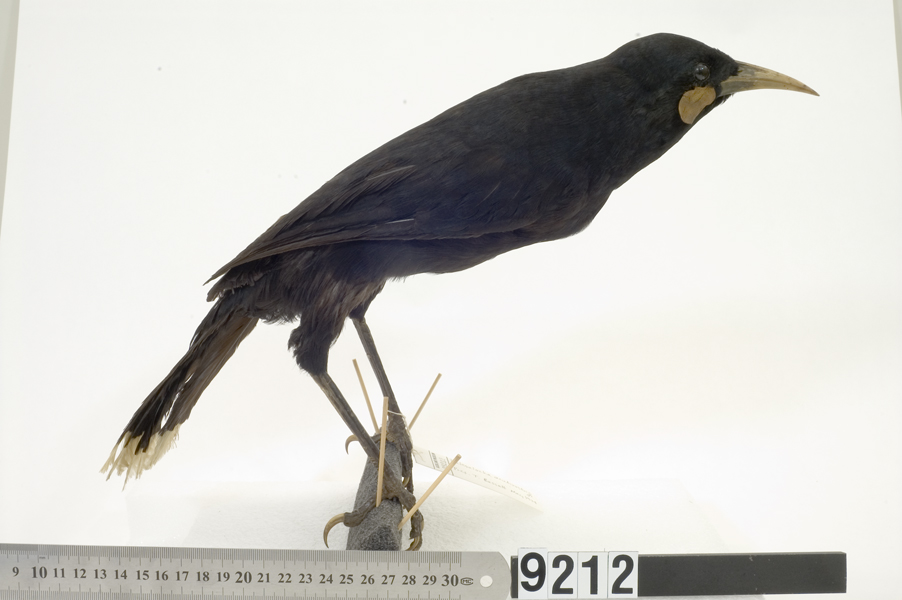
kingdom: Animalia
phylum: Chordata
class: Aves
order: Passeriformes
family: Callaeatidae
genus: Heteralocha
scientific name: Heteralocha acutirostris
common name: Huia
